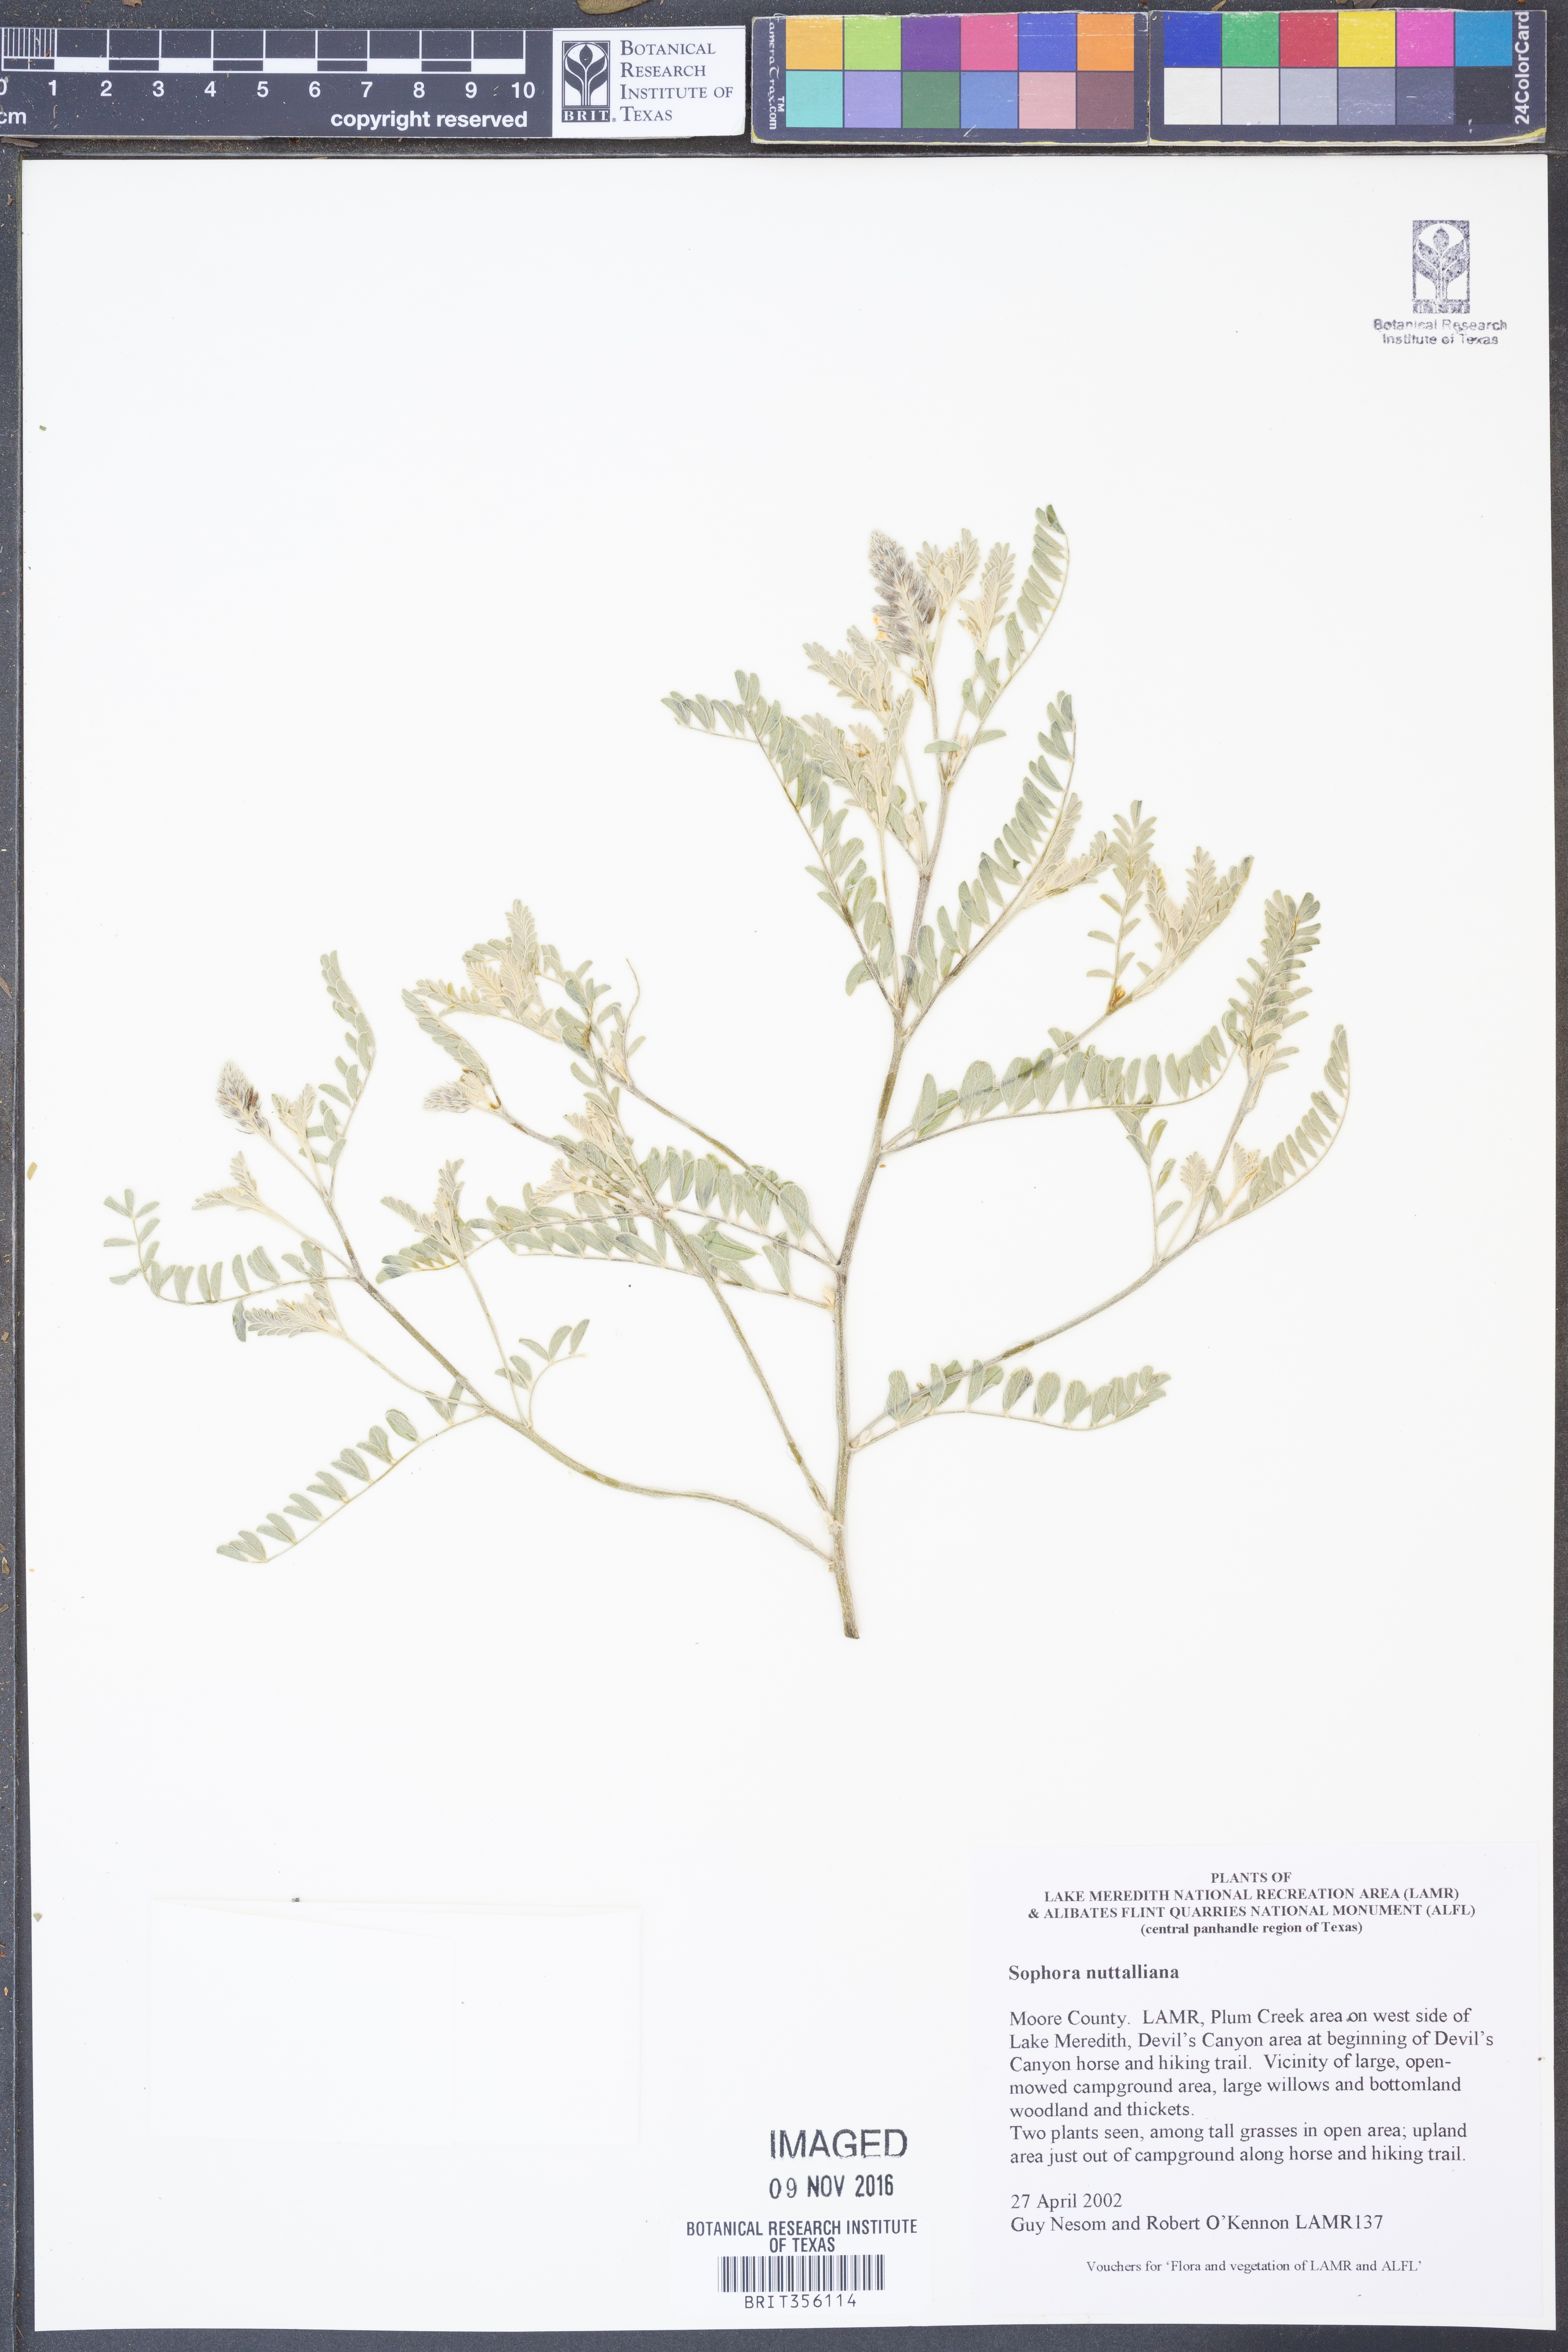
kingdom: Plantae
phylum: Tracheophyta
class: Magnoliopsida
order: Fabales
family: Fabaceae
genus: Sophora
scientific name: Sophora nuttalliana
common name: Silky sophora
